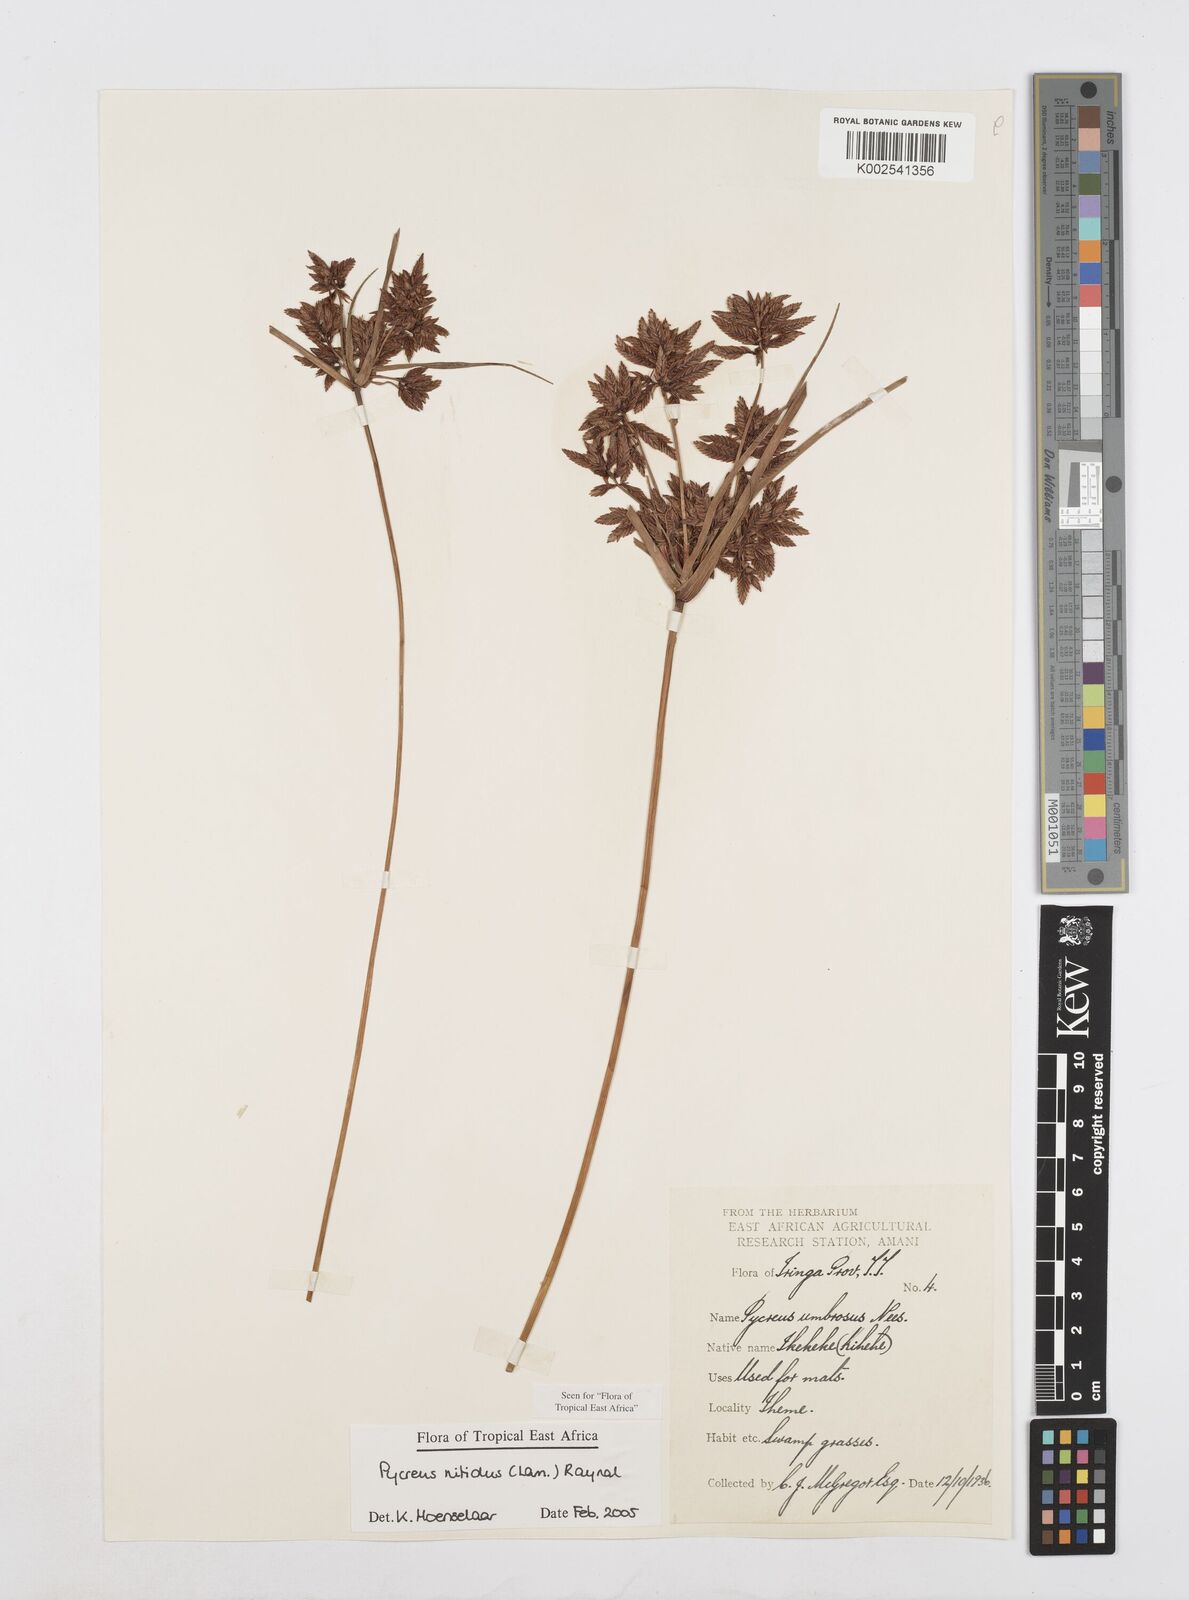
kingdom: Plantae
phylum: Tracheophyta
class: Liliopsida
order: Poales
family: Cyperaceae
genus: Cyperus
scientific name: Cyperus nitidus
